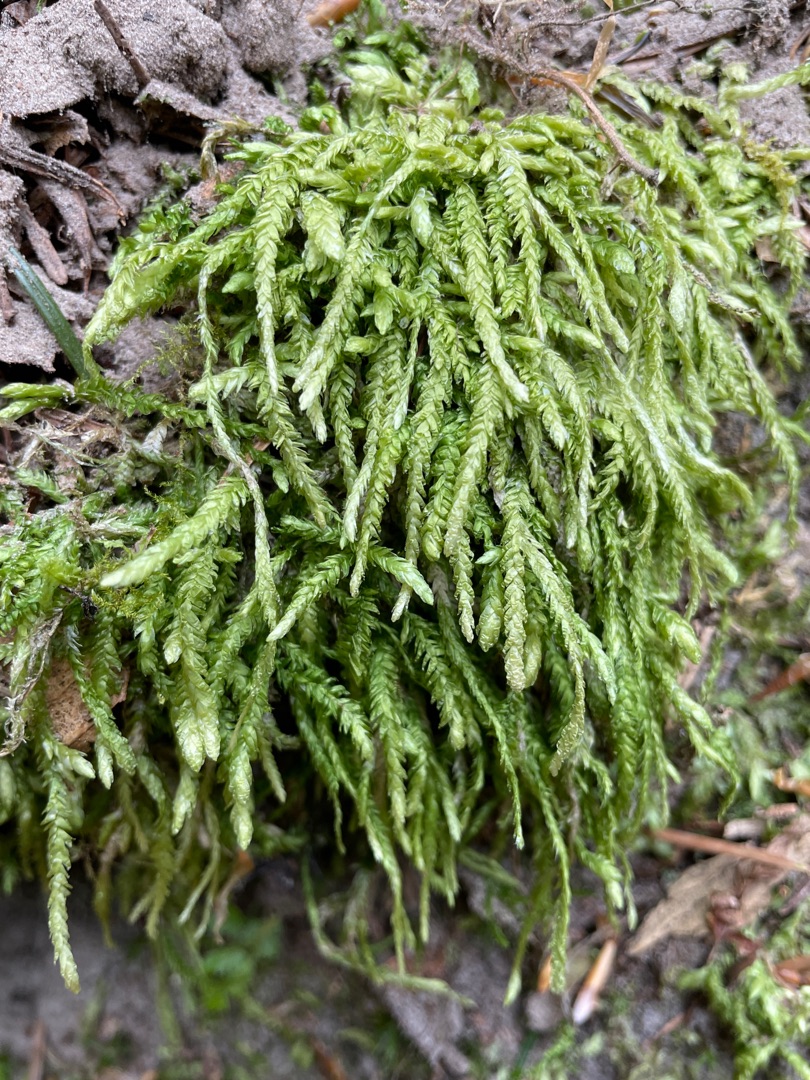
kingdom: Plantae
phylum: Bryophyta
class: Bryopsida
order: Hypnales
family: Plagiotheciaceae
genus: Plagiothecium
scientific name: Plagiothecium undulatum
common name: Bølget tæppemos
